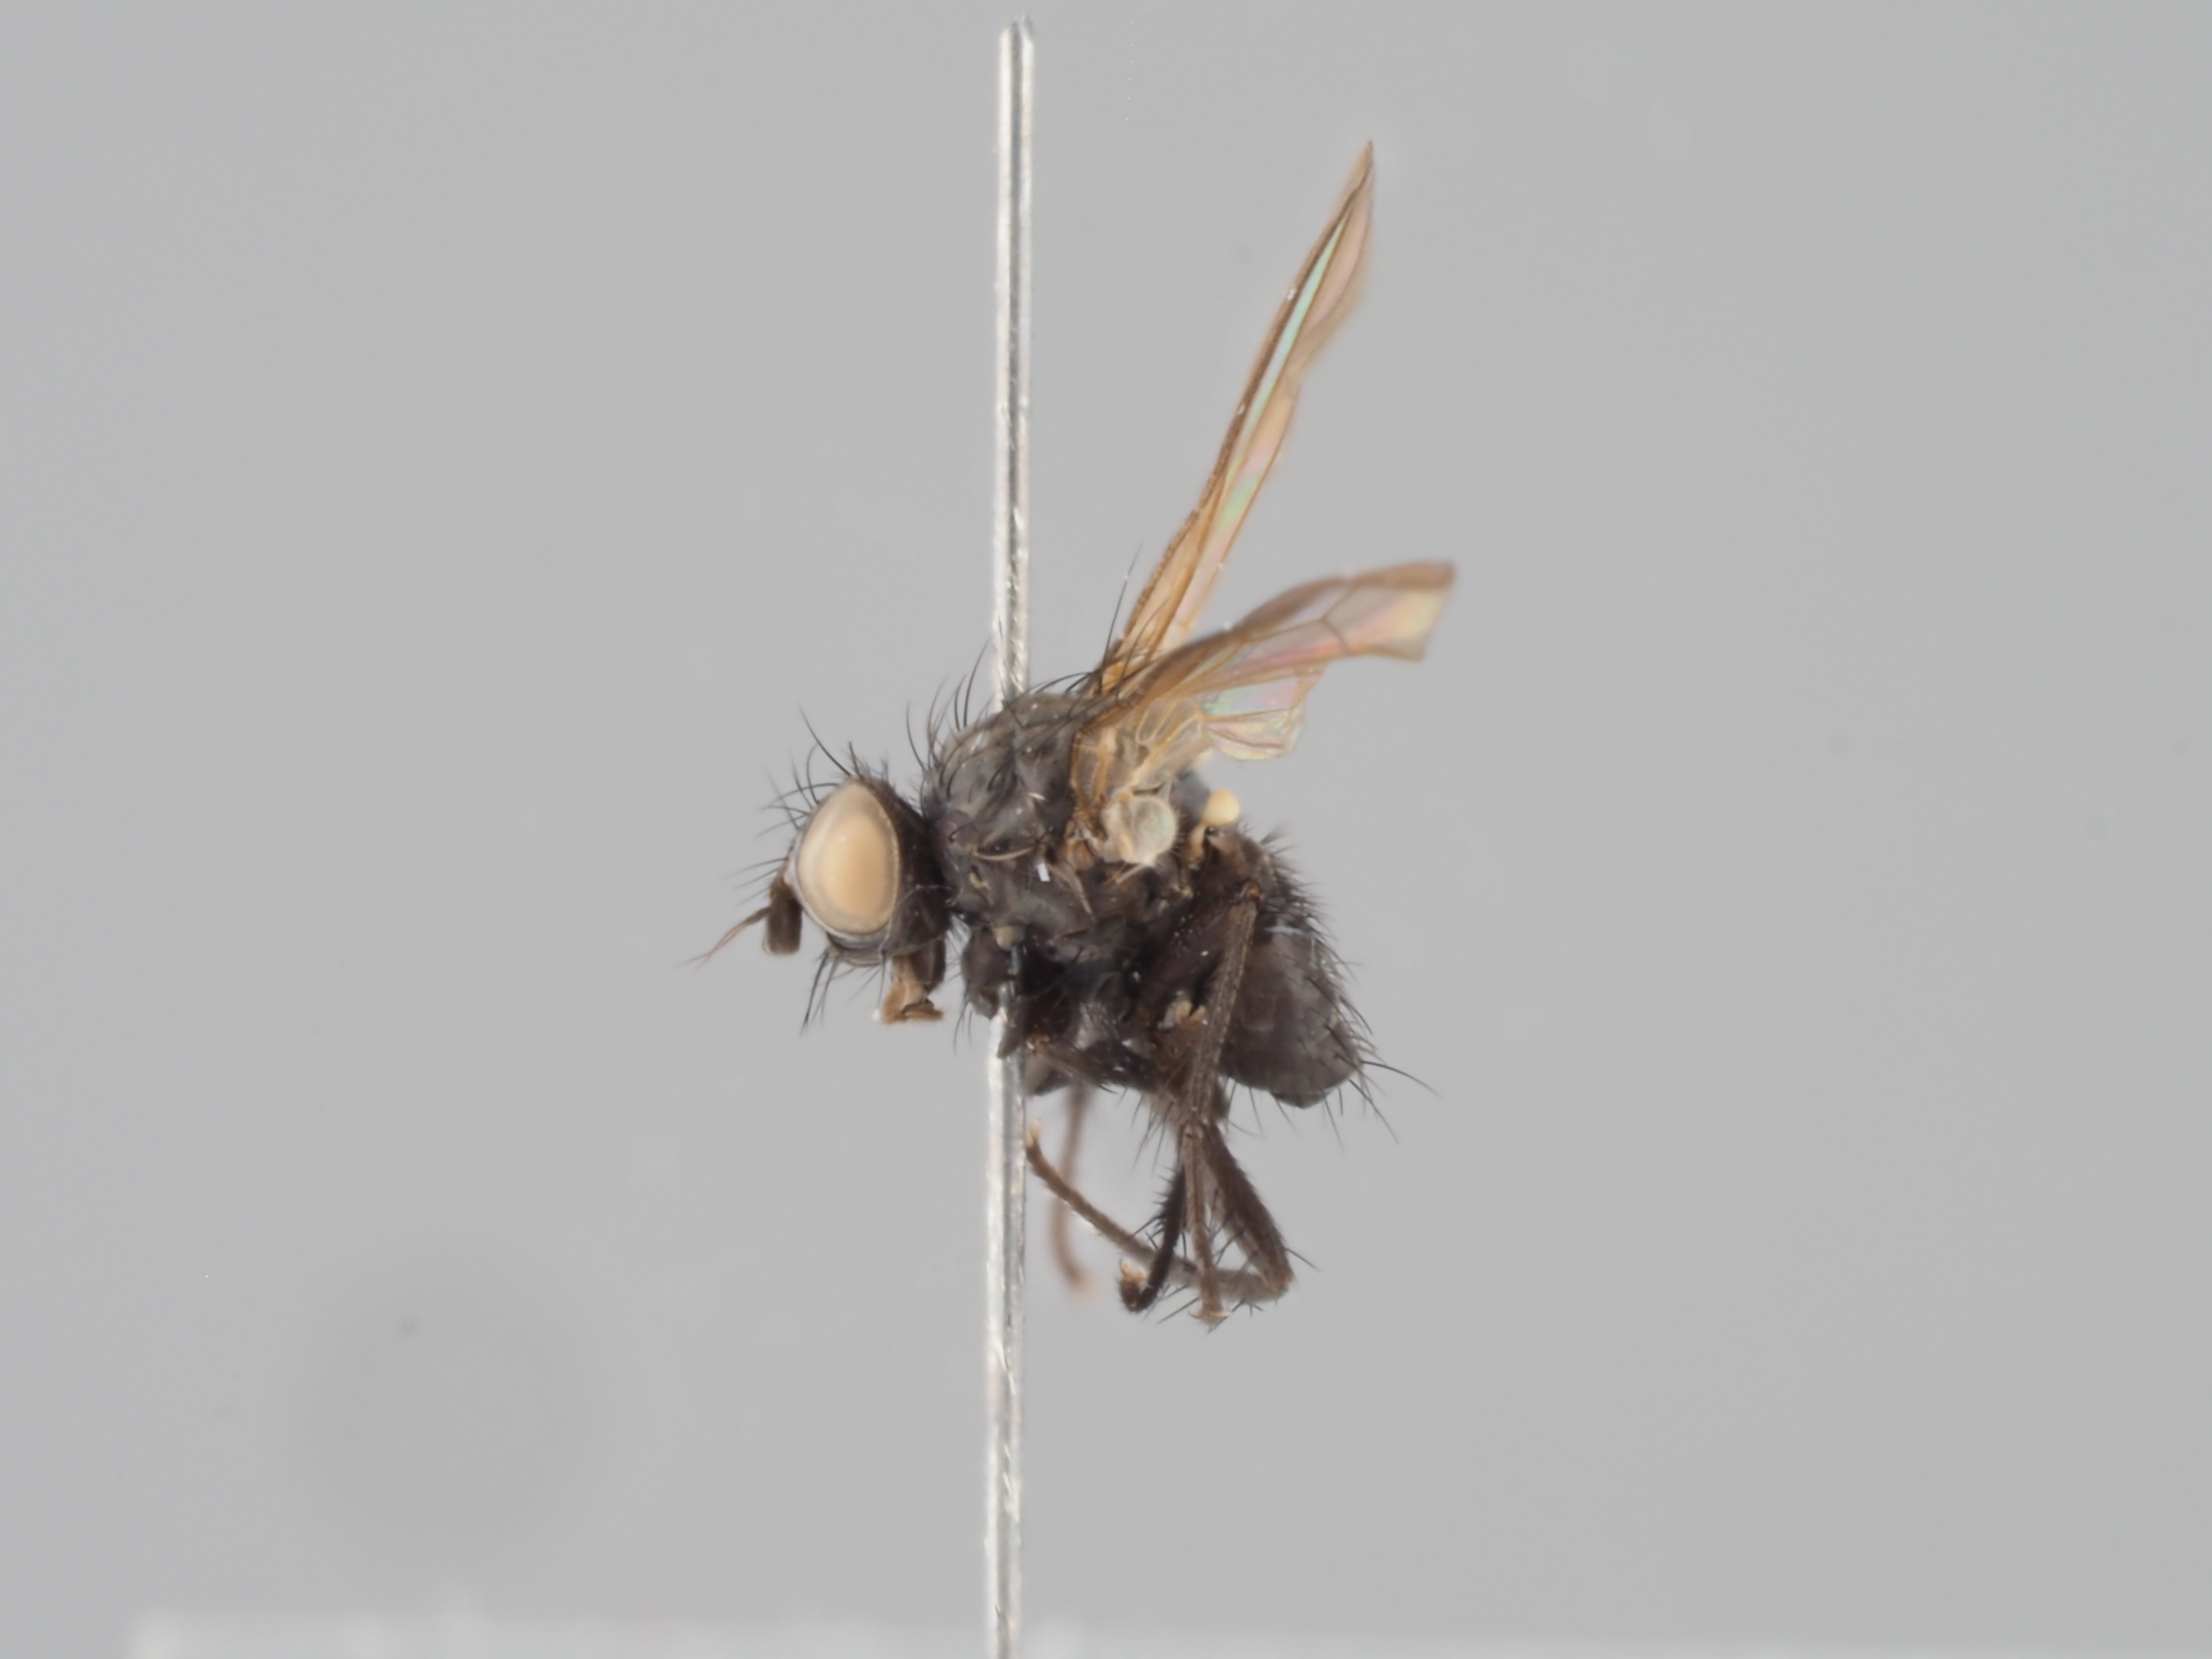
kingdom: Animalia
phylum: Arthropoda
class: Insecta
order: Diptera
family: Anthomyiidae
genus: Chirosia
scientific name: Chirosia grossicauda
